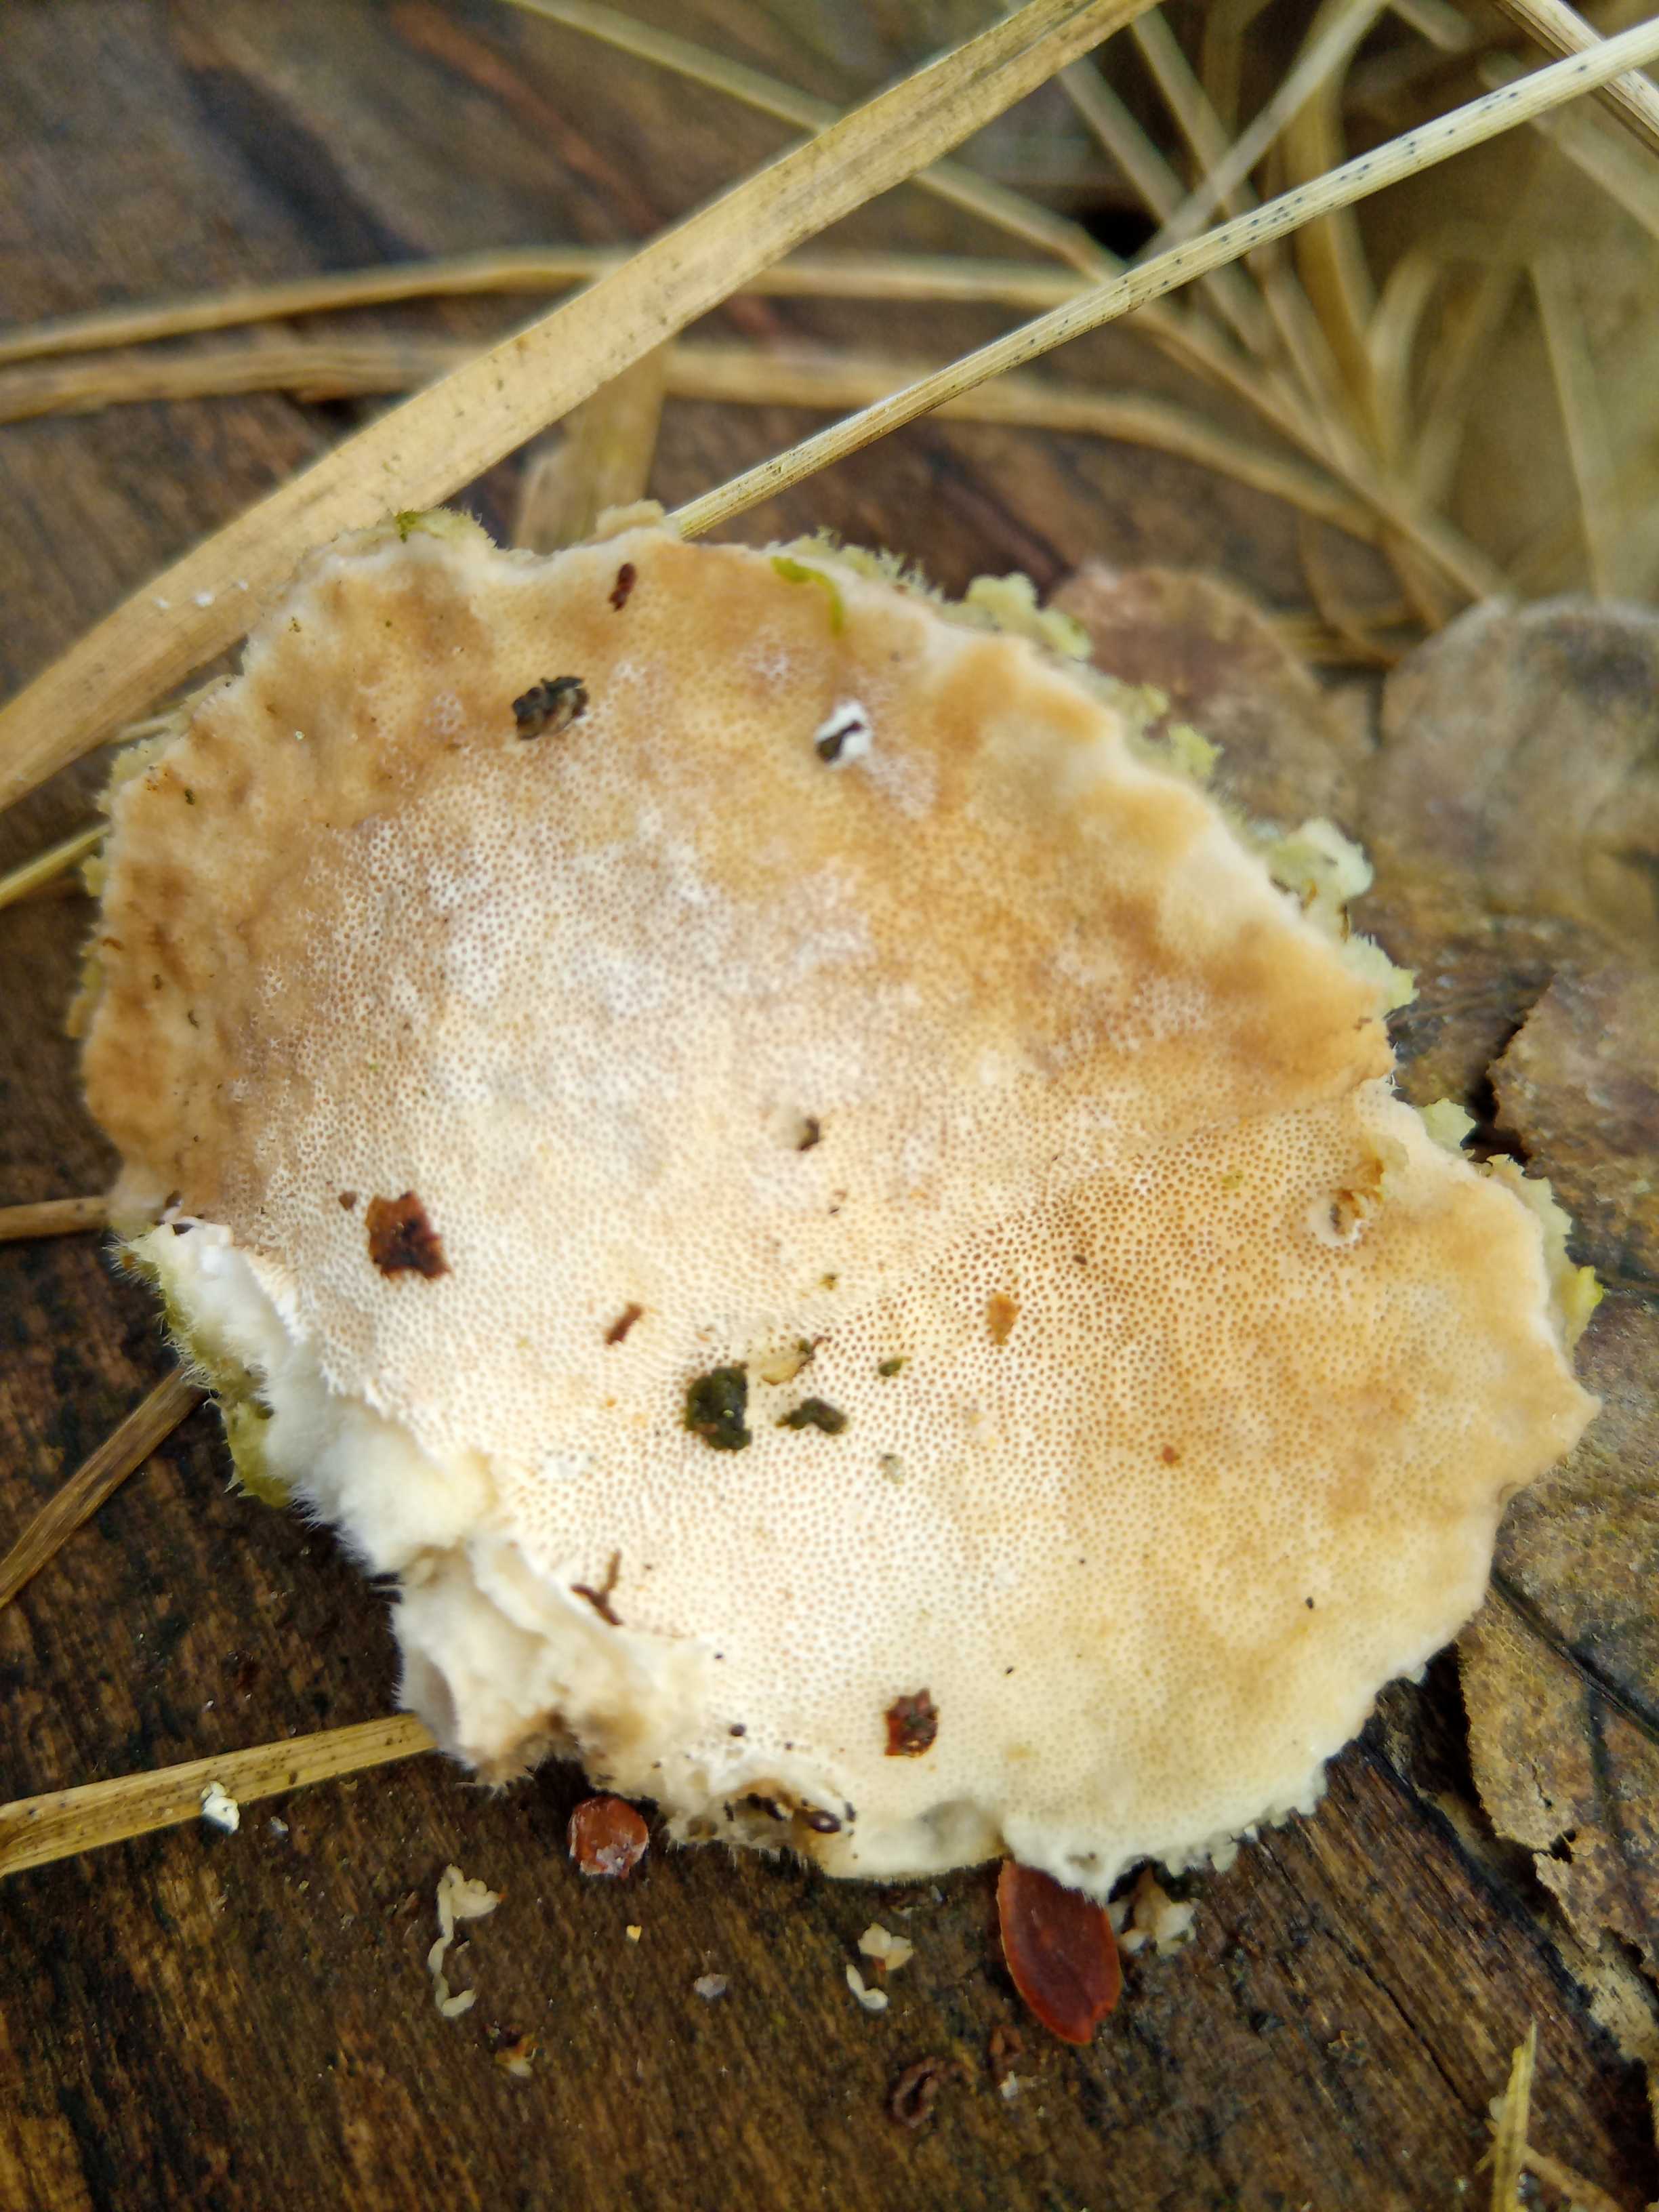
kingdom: Fungi
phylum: Basidiomycota
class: Agaricomycetes
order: Polyporales
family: Polyporaceae
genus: Trametes
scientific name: Trametes hirsuta
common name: håret læderporesvamp
